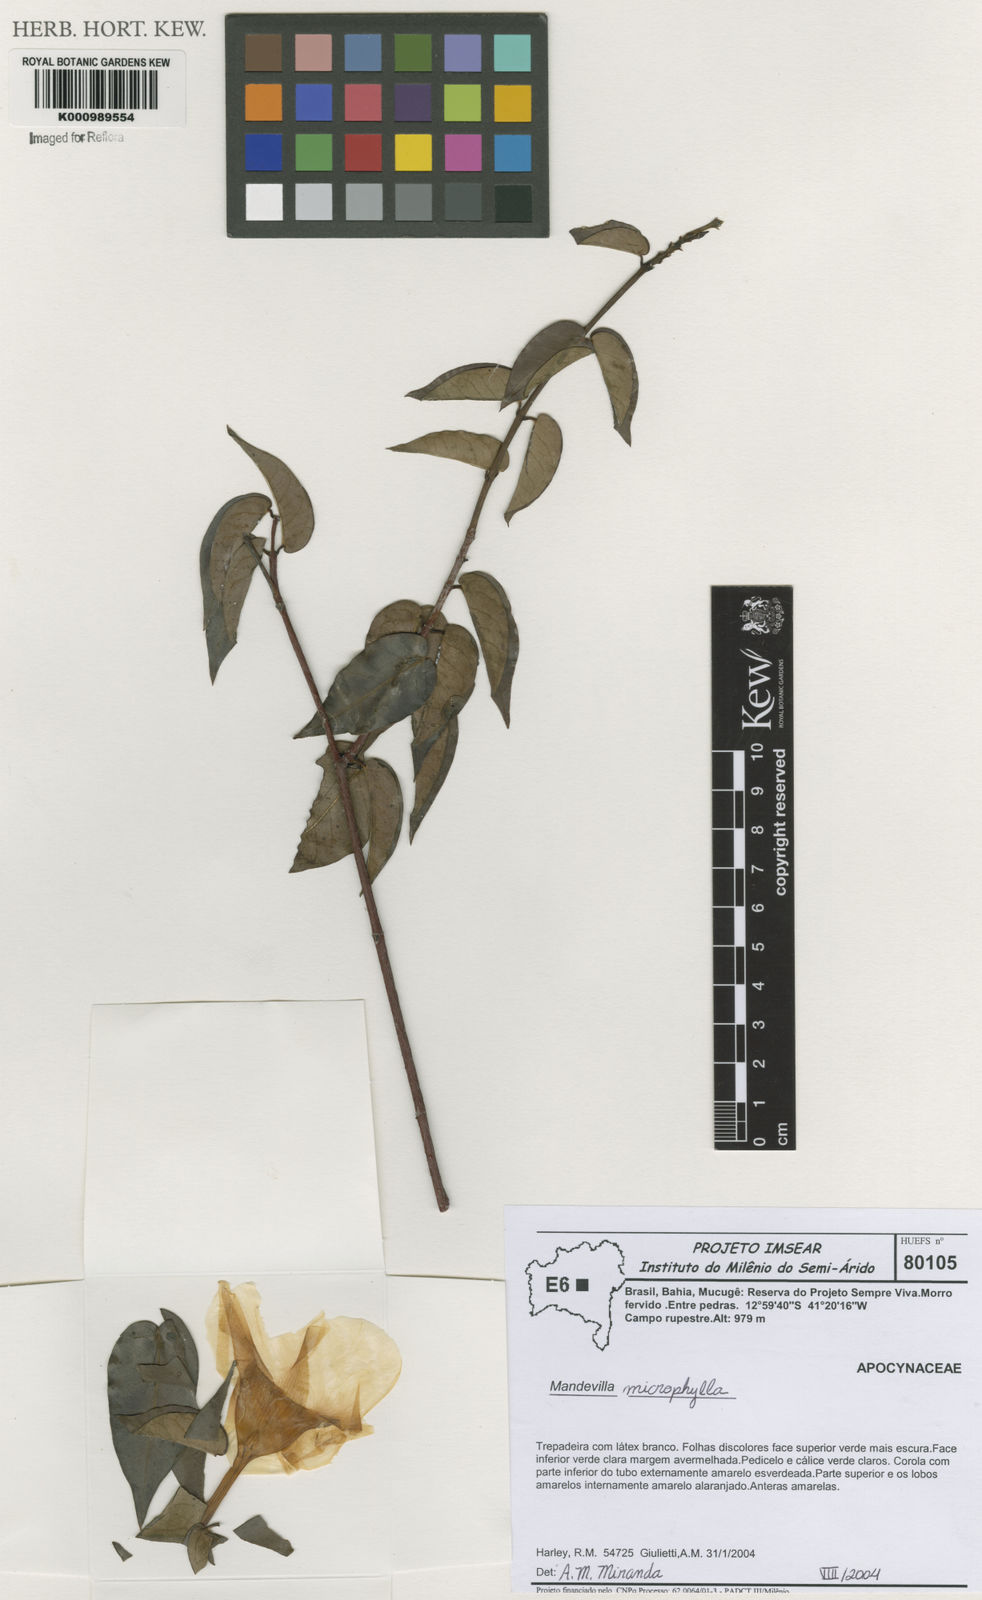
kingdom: Plantae
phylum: Tracheophyta
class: Magnoliopsida
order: Gentianales
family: Apocynaceae
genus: Mandevilla
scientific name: Mandevilla
